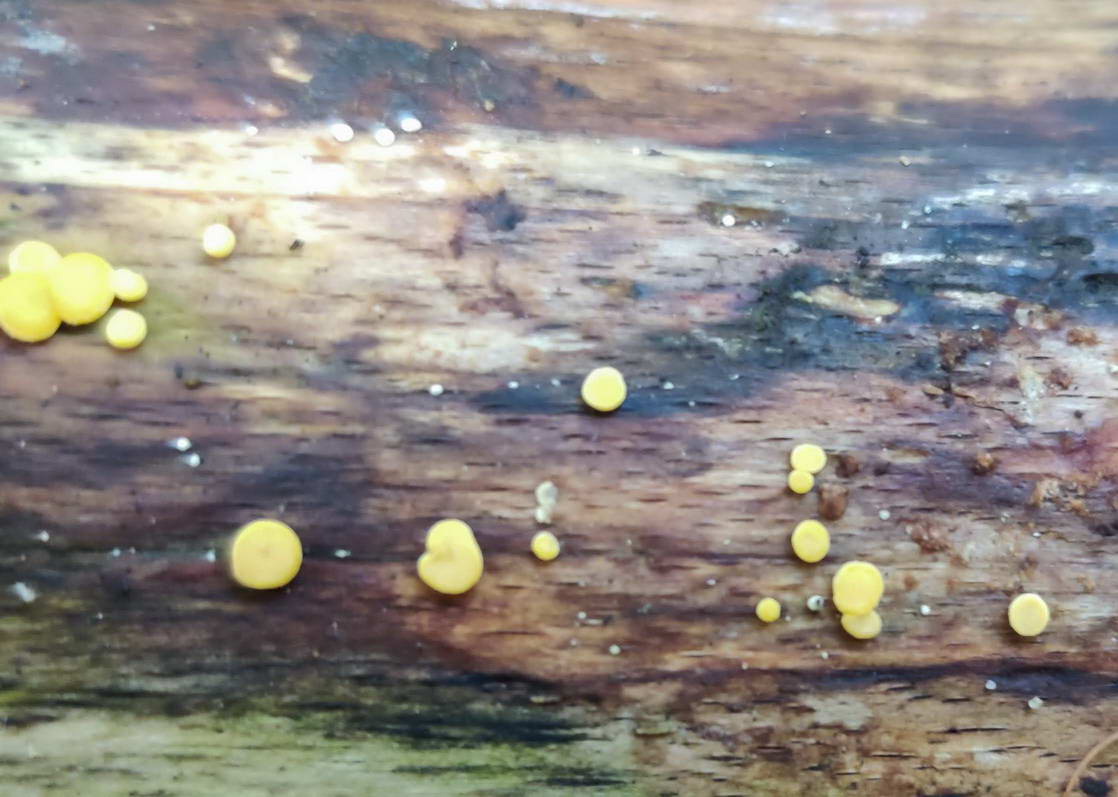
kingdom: Fungi
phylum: Ascomycota
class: Sordariomycetes
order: Hypocreales
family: Hypocreaceae
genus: Trichoderma
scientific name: Trichoderma aureoviride
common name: æggegul kødkerne
